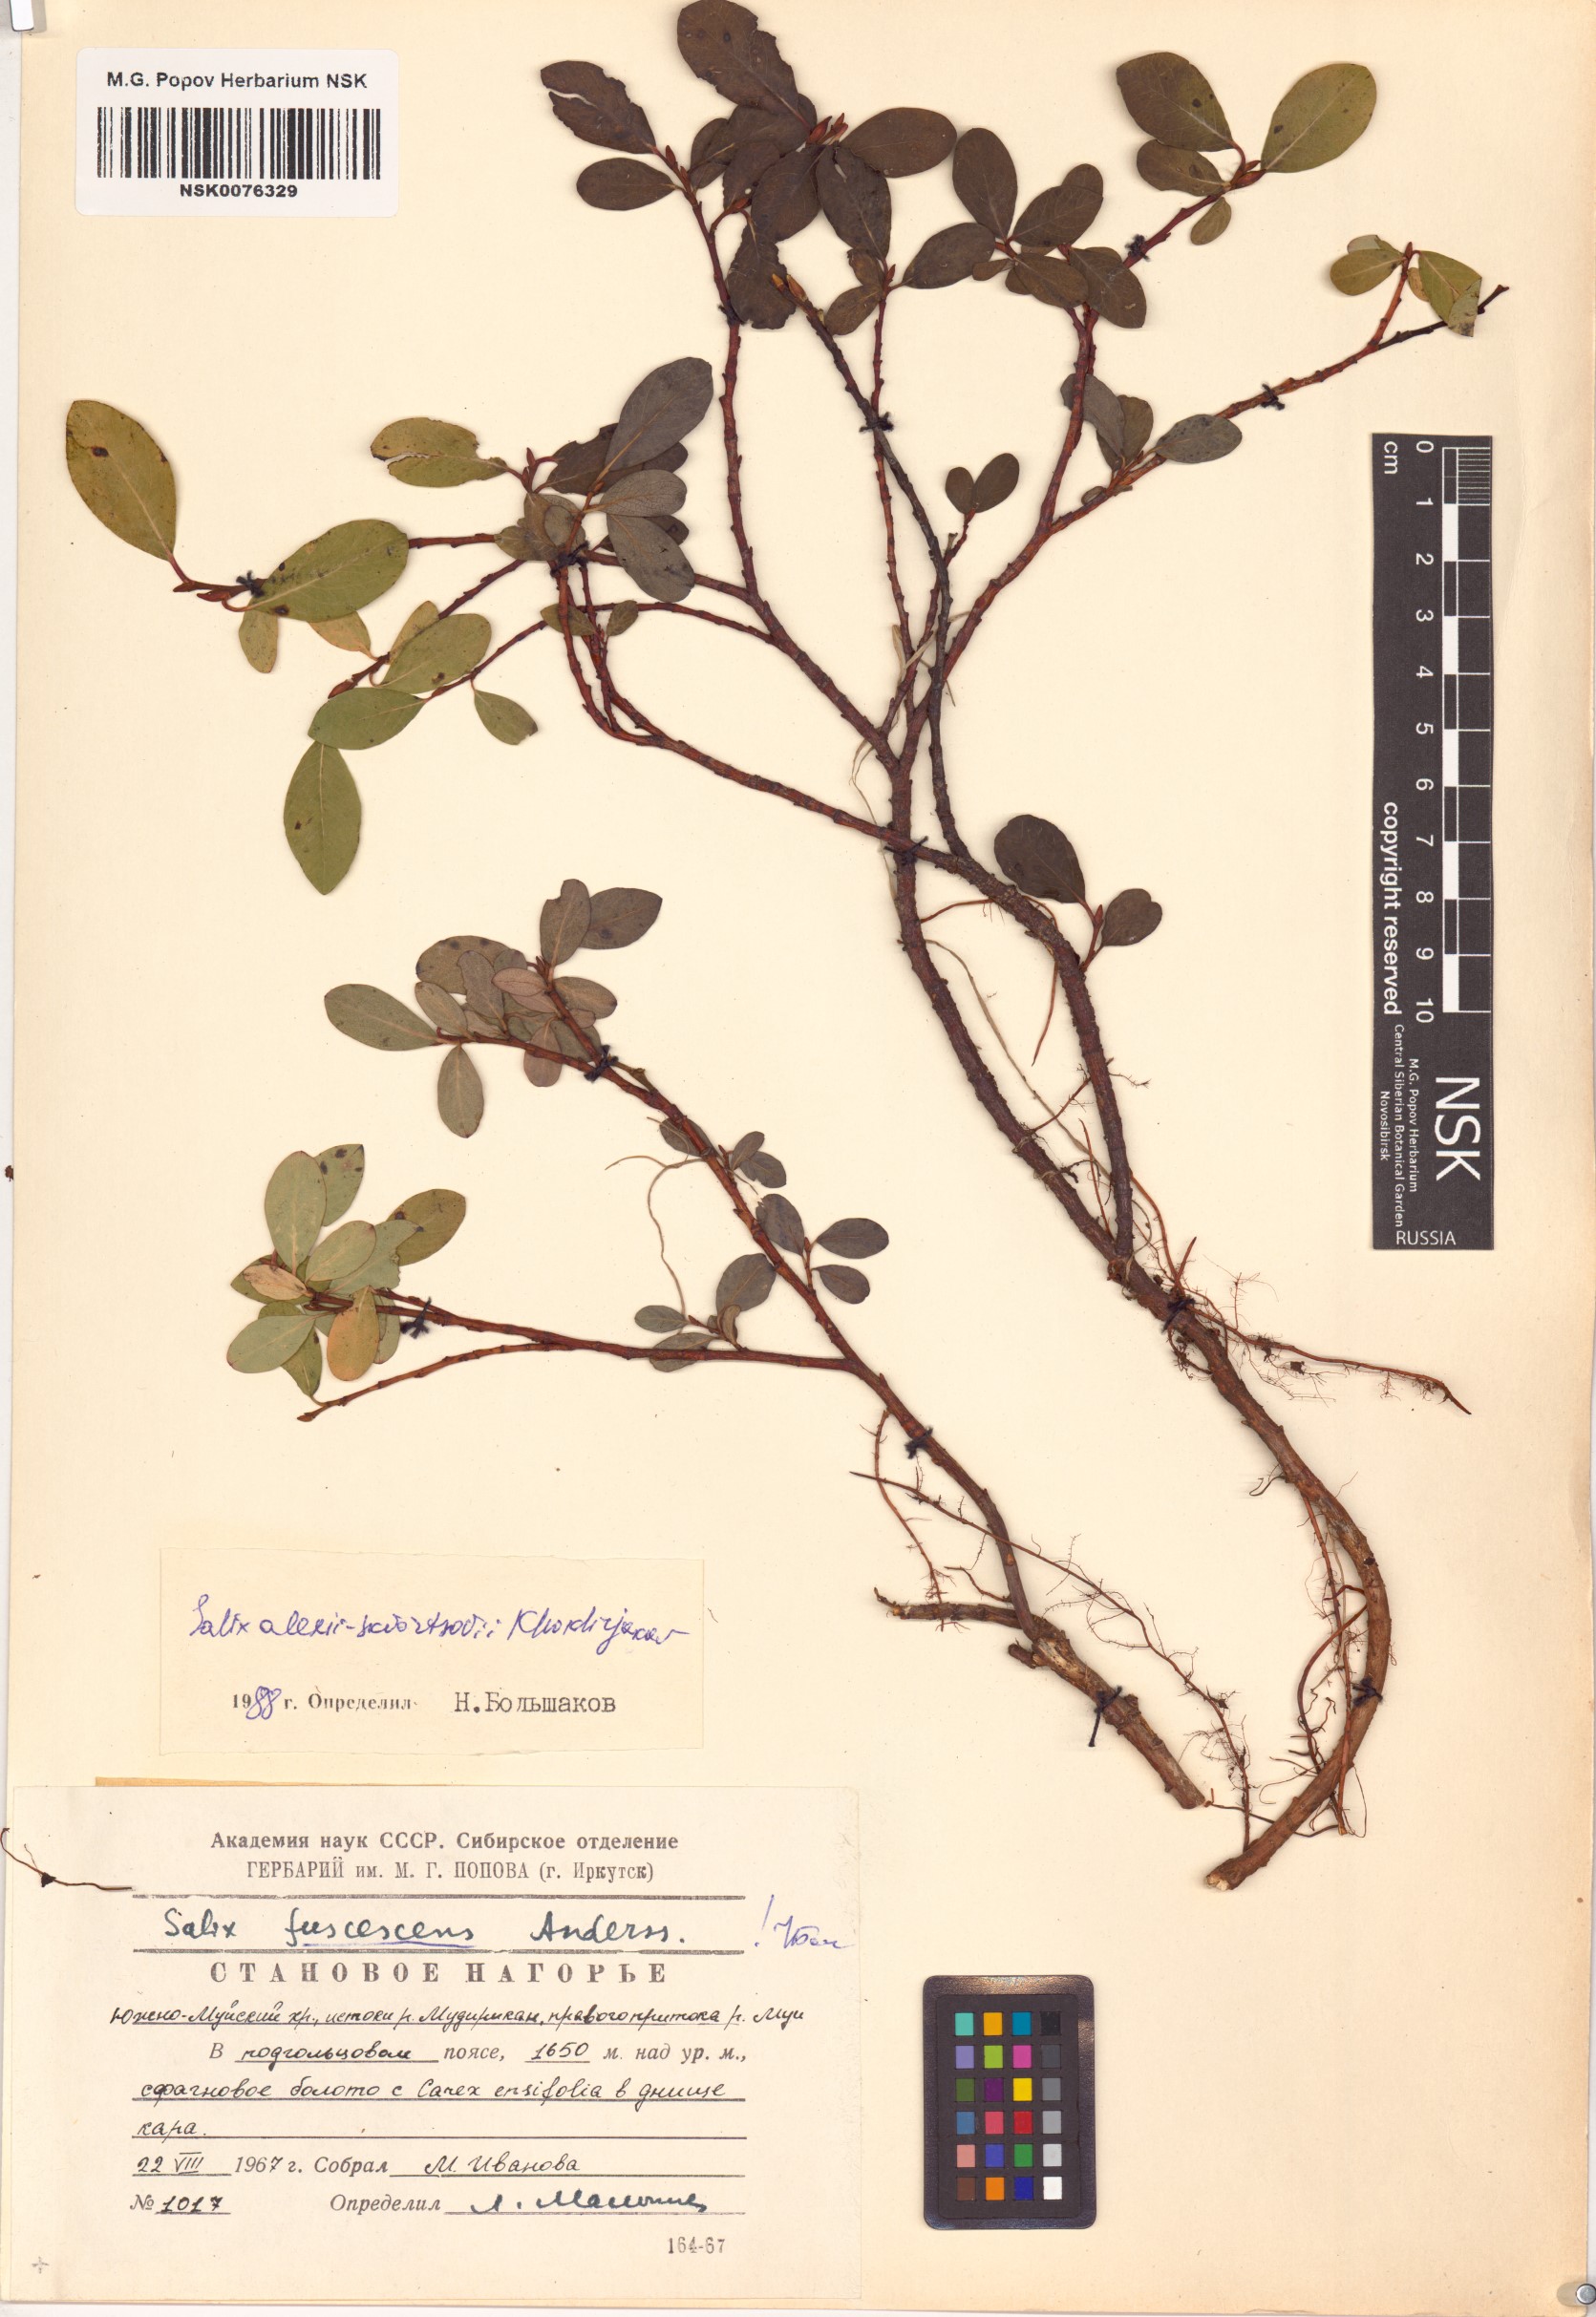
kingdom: Plantae
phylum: Tracheophyta
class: Magnoliopsida
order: Malpighiales
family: Salicaceae
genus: Salix
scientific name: Salix alexii-skvortzovii
